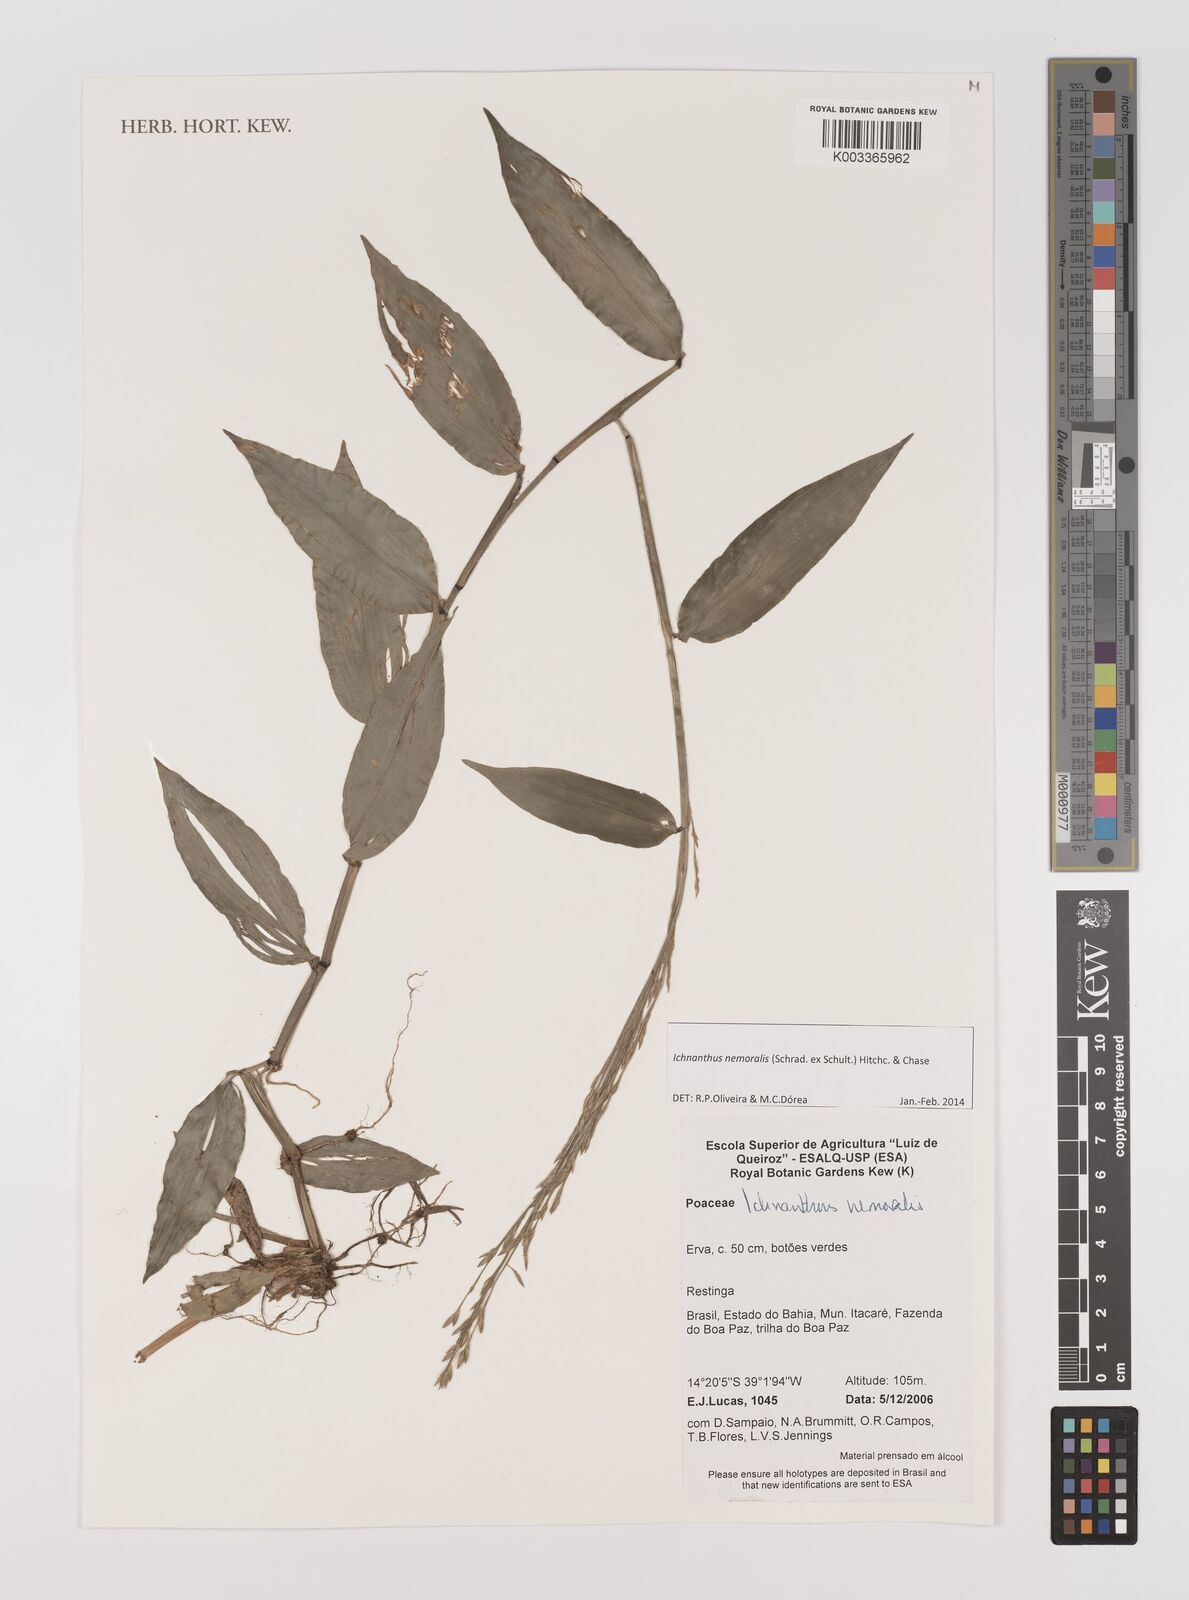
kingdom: Plantae
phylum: Tracheophyta
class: Liliopsida
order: Poales
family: Poaceae
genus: Ichnanthus
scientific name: Ichnanthus nemoralis
